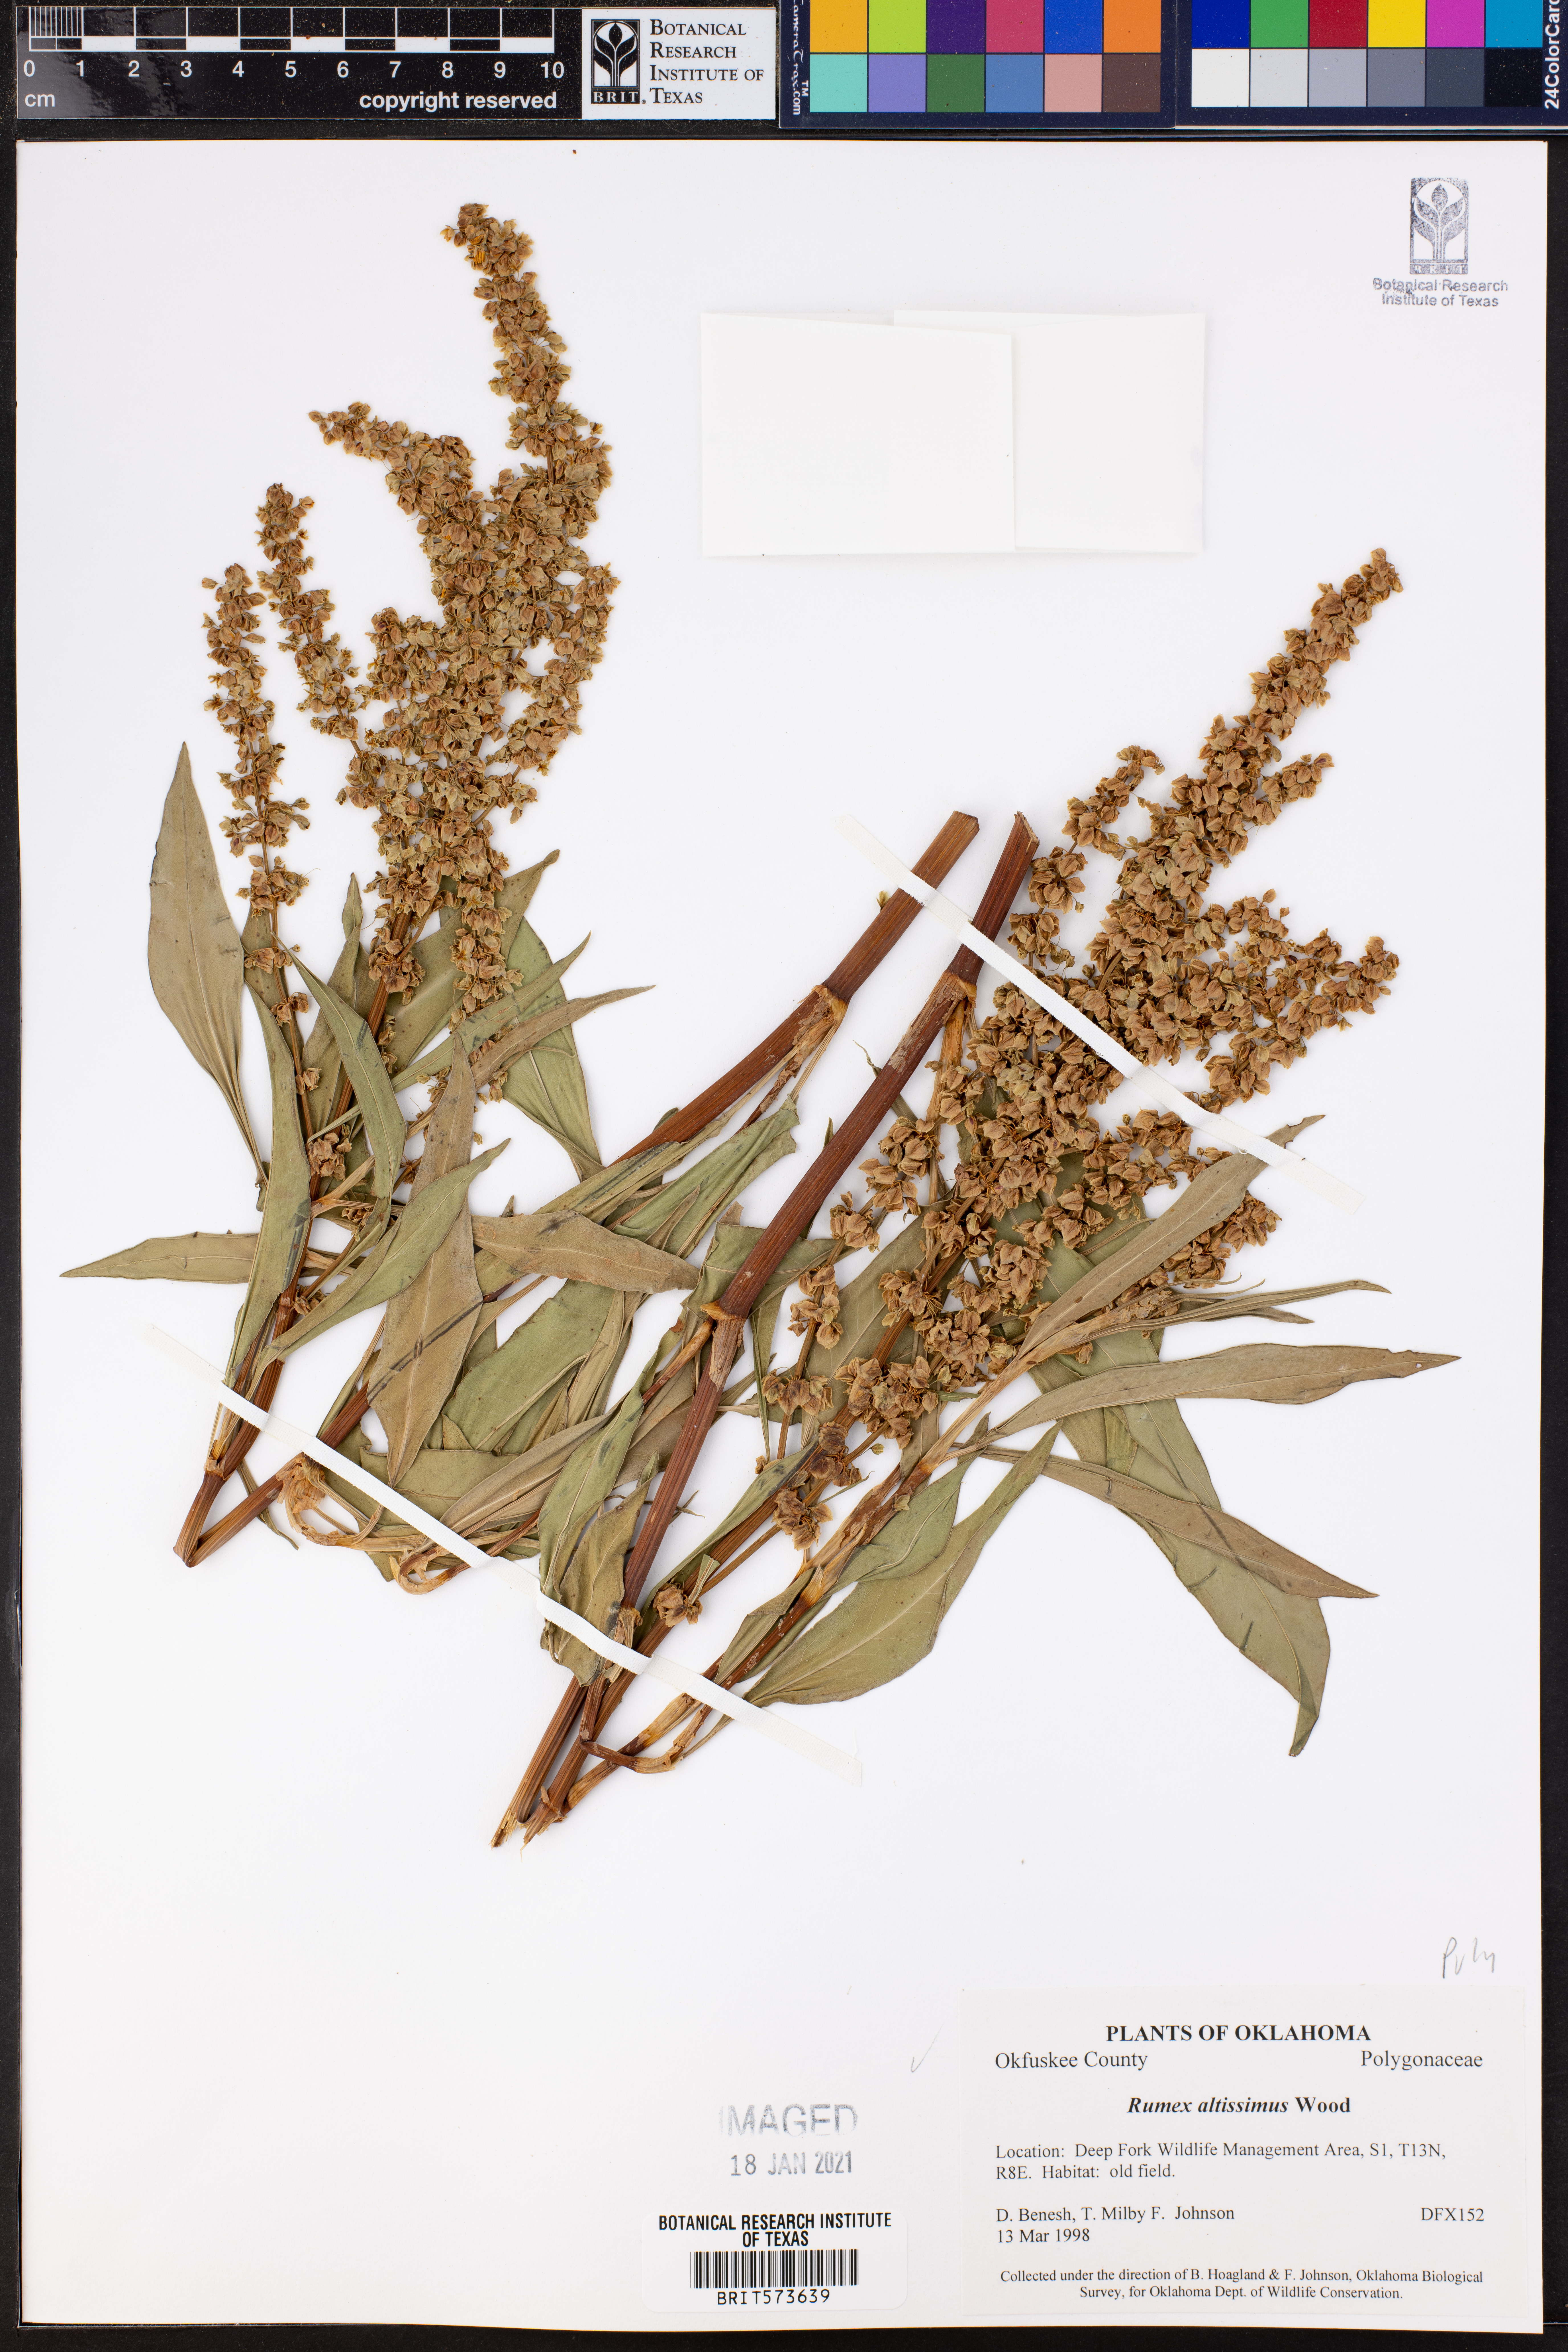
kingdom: Plantae
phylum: Tracheophyta
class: Magnoliopsida
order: Caryophyllales
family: Polygonaceae
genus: Rumex
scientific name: Rumex altissimus
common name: Smooth dock
